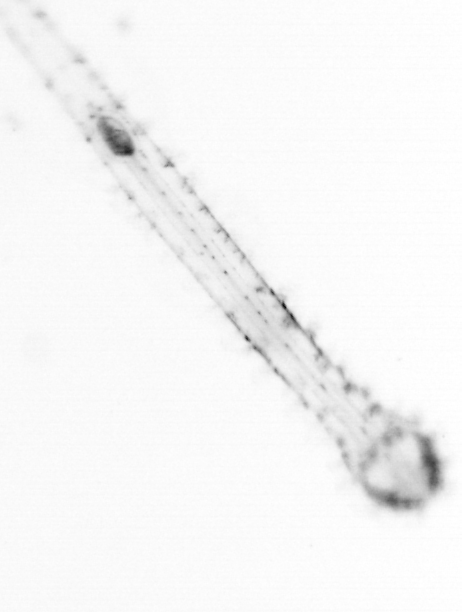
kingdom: Animalia
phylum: Chaetognatha
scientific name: Chaetognatha
